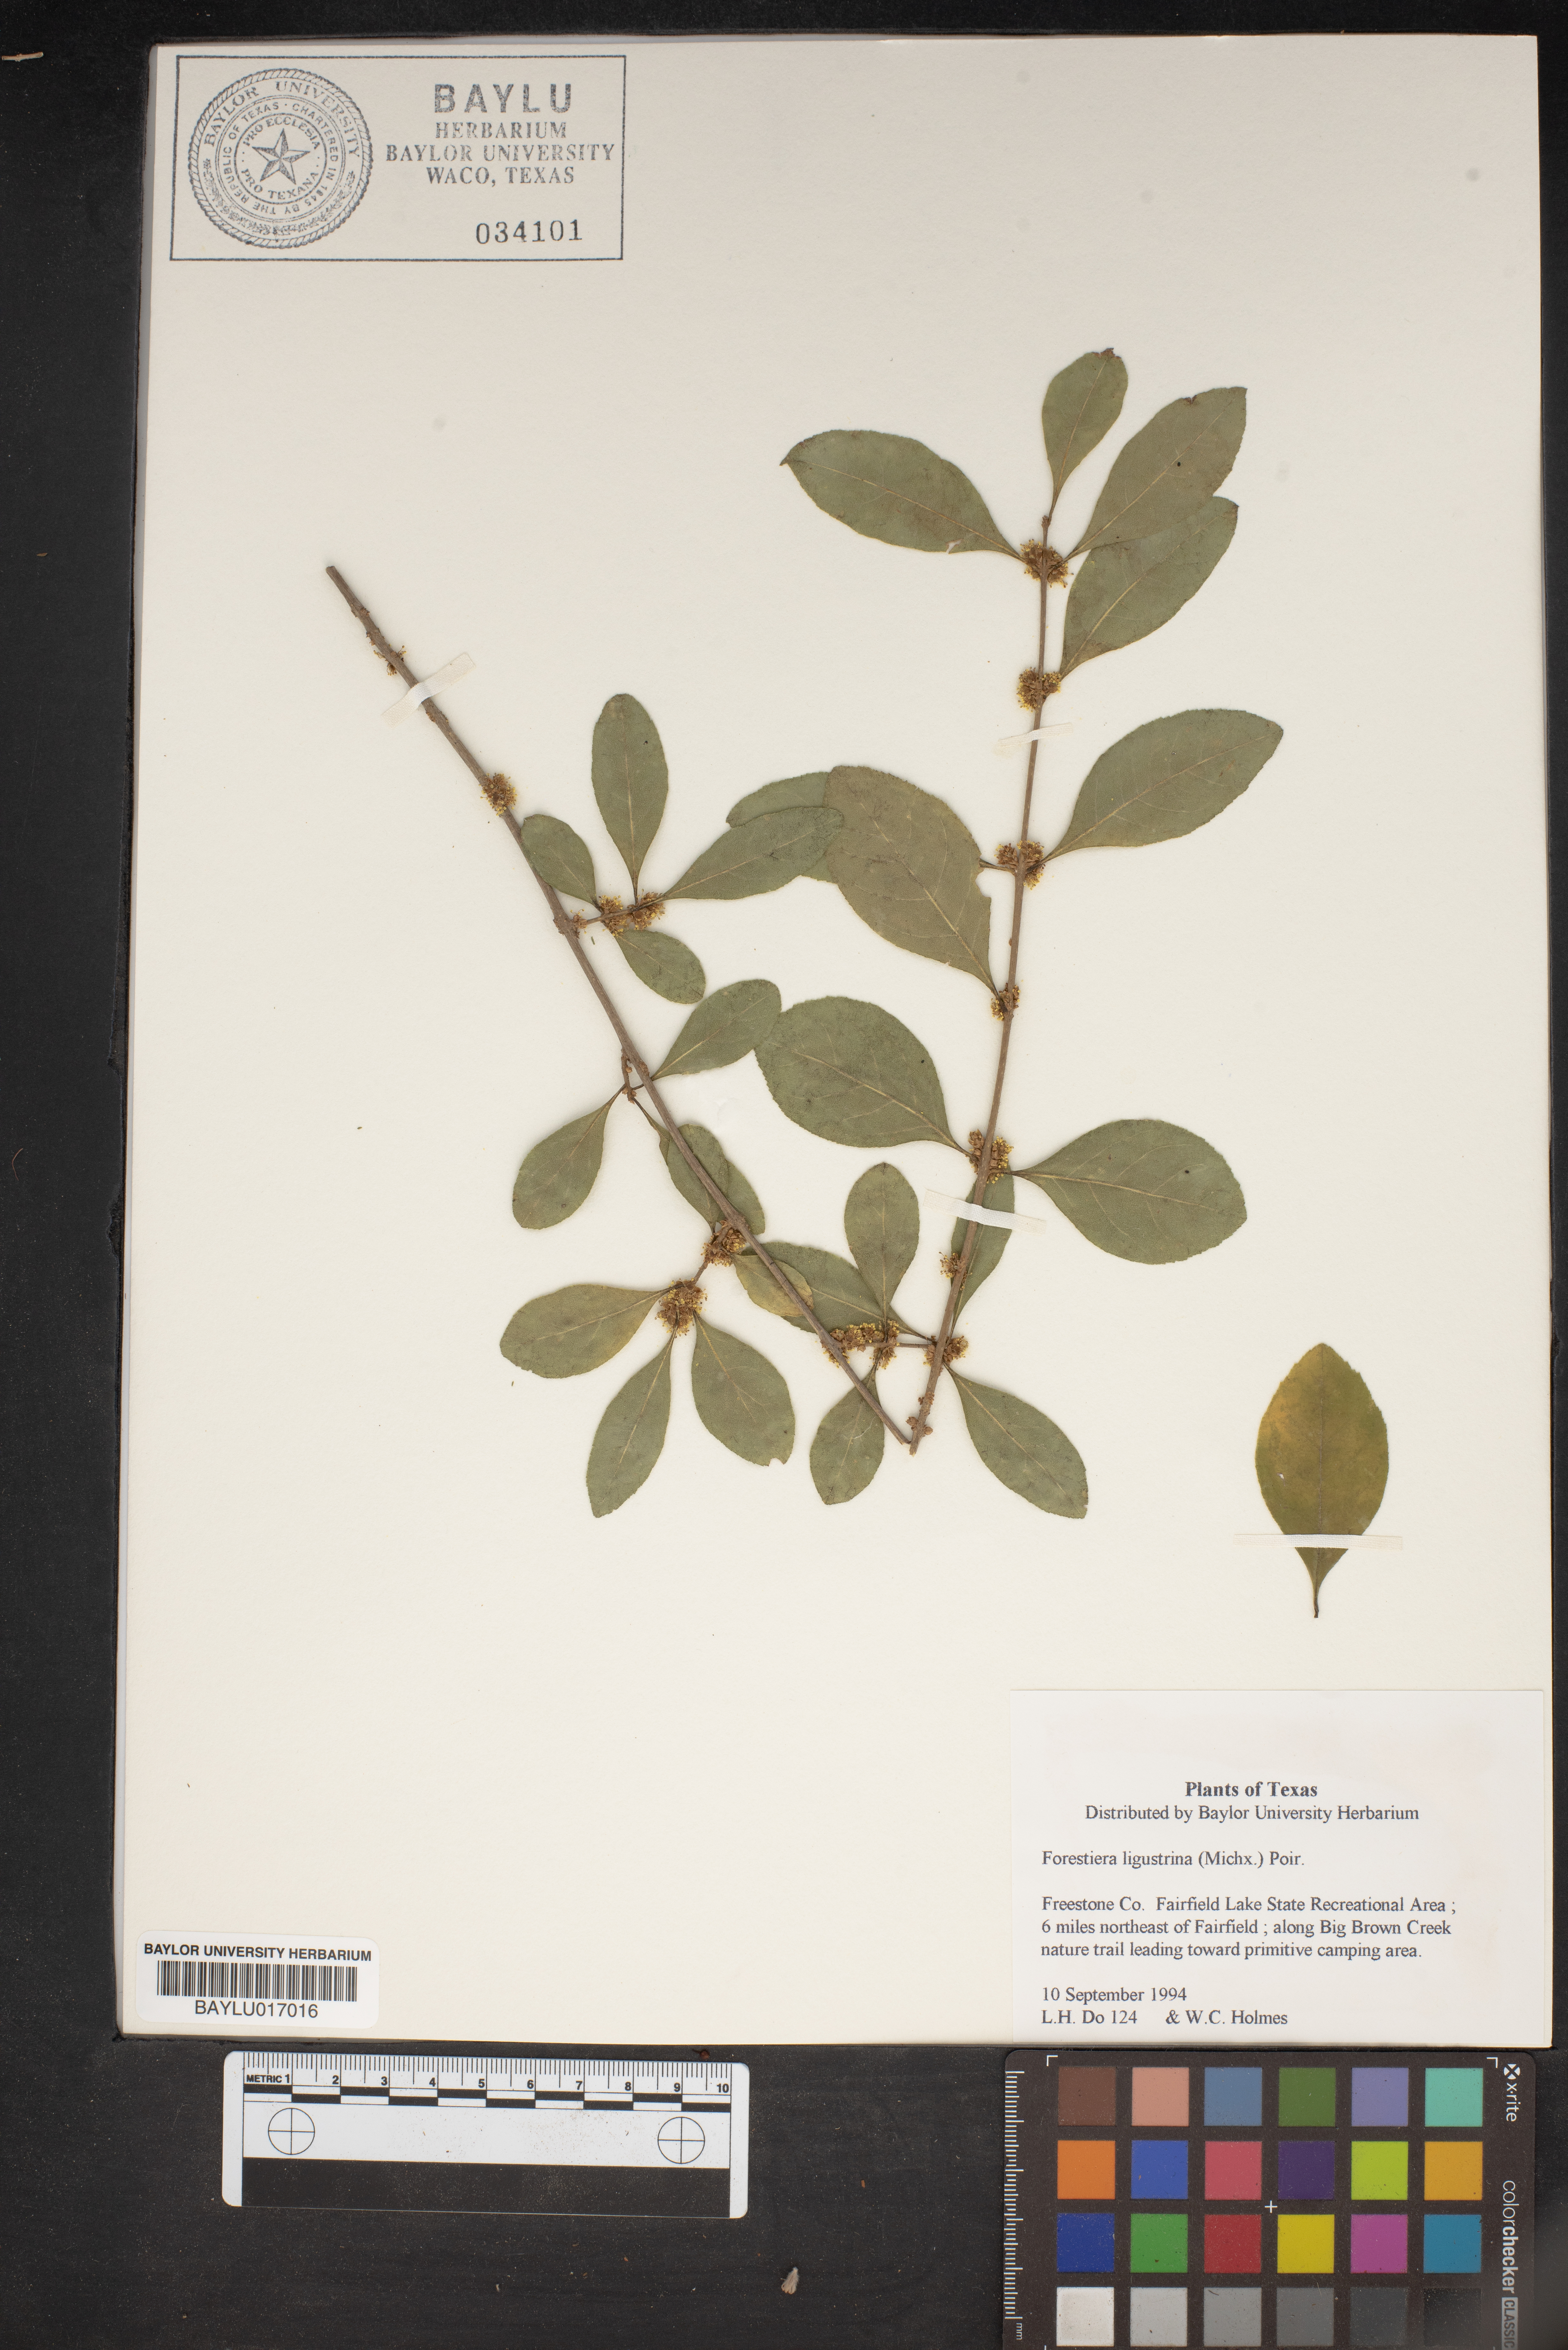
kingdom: Plantae
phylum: Tracheophyta
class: Magnoliopsida
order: Lamiales
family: Oleaceae
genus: Forestiera
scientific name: Forestiera ligustrina
